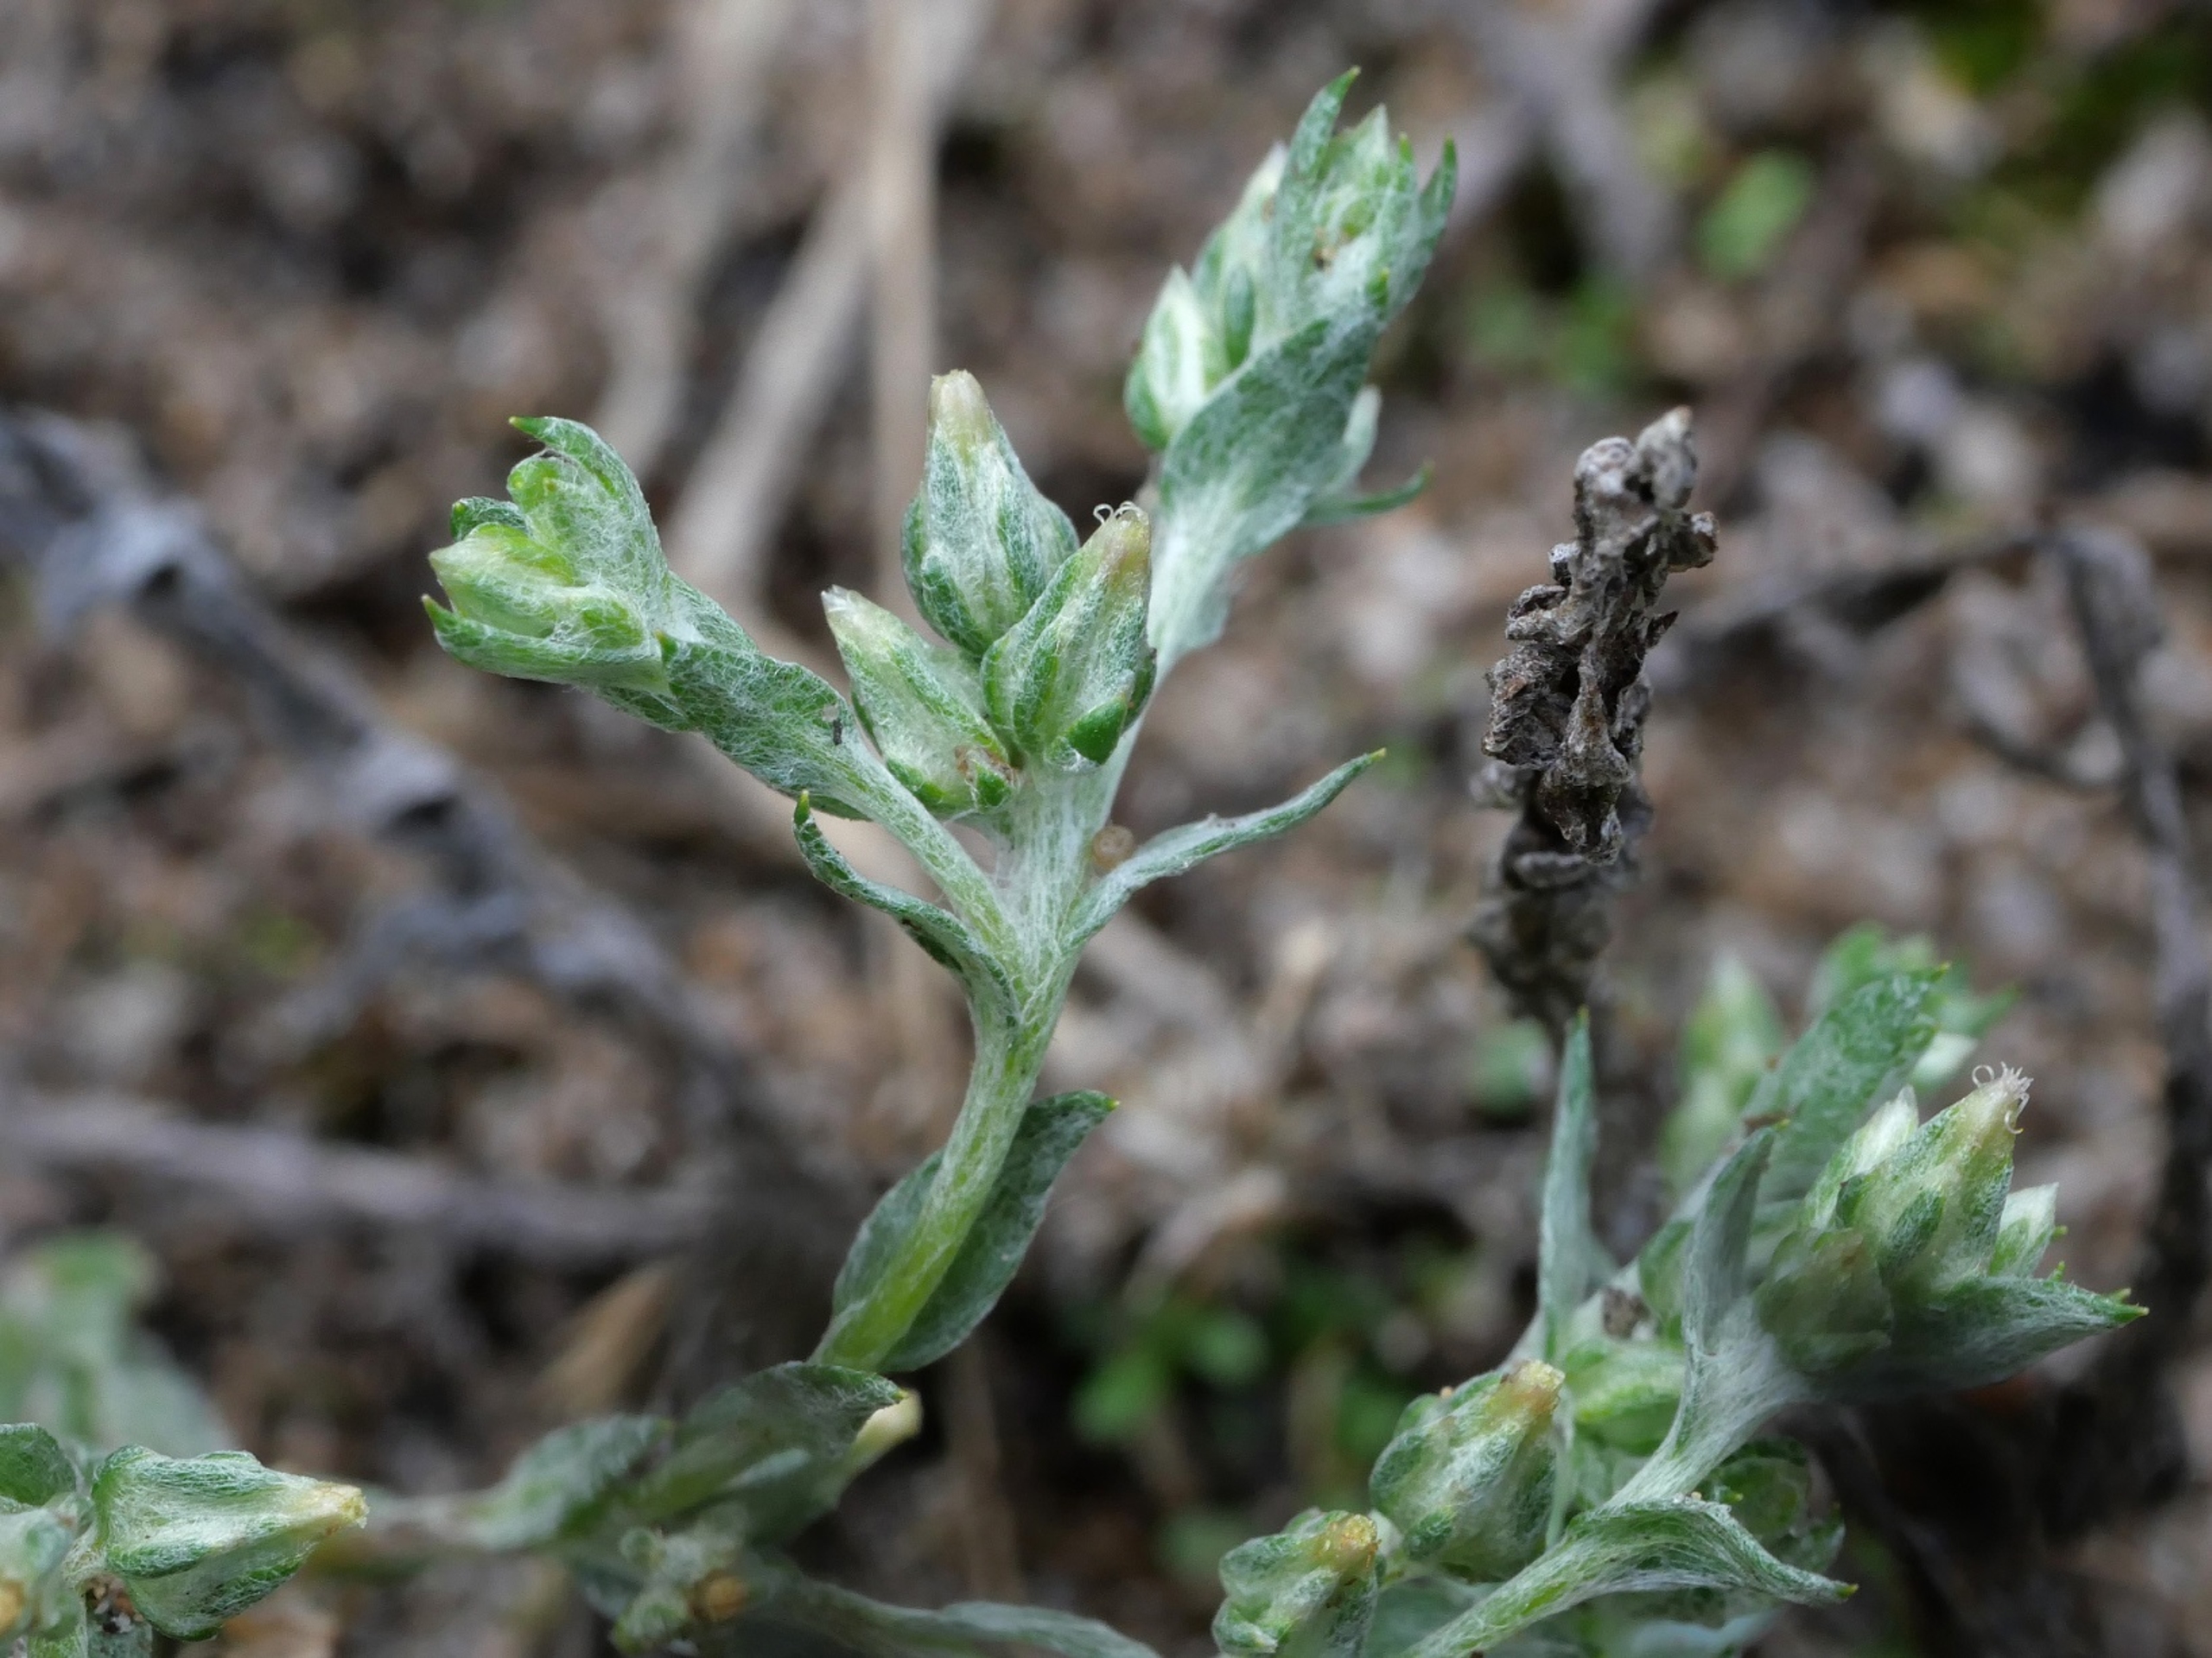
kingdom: Plantae
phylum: Tracheophyta
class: Magnoliopsida
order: Asterales
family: Asteraceae
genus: Logfia
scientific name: Logfia minima
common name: Liden museurt
